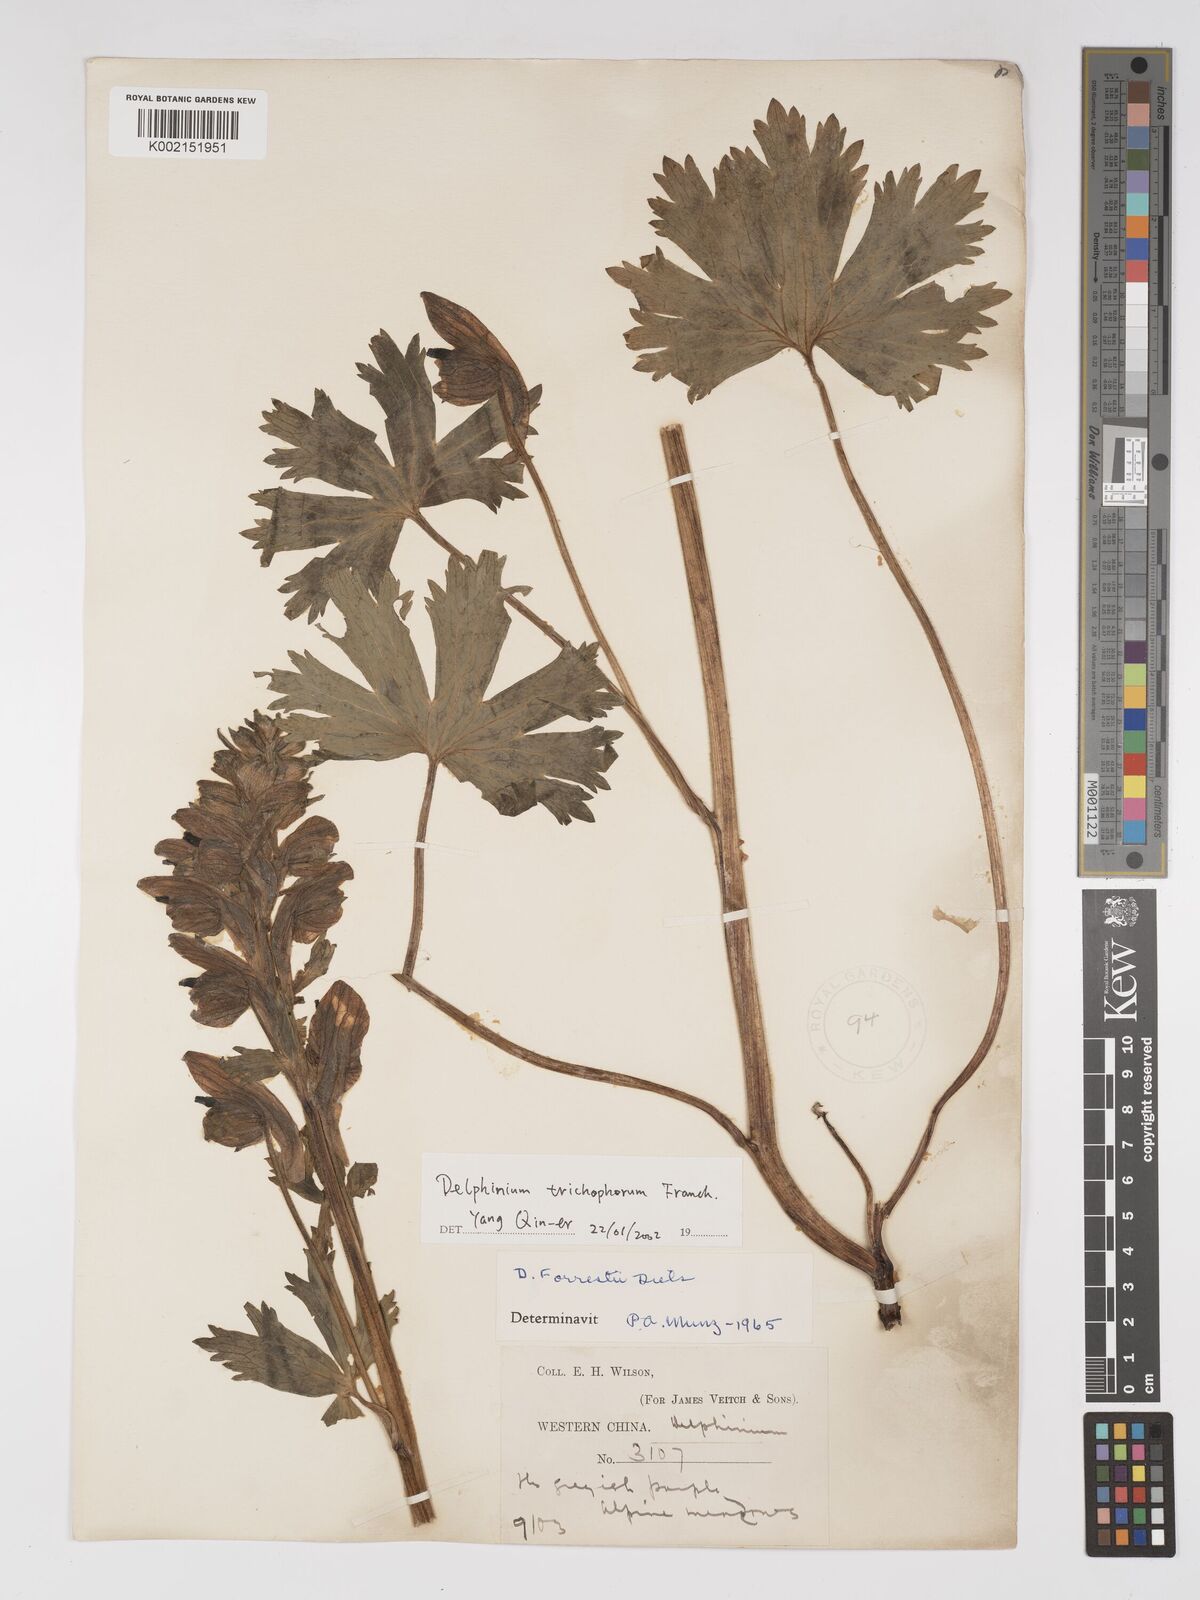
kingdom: Plantae
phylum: Tracheophyta
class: Magnoliopsida
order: Ranunculales
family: Ranunculaceae
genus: Delphinium
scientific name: Delphinium trichophorum
